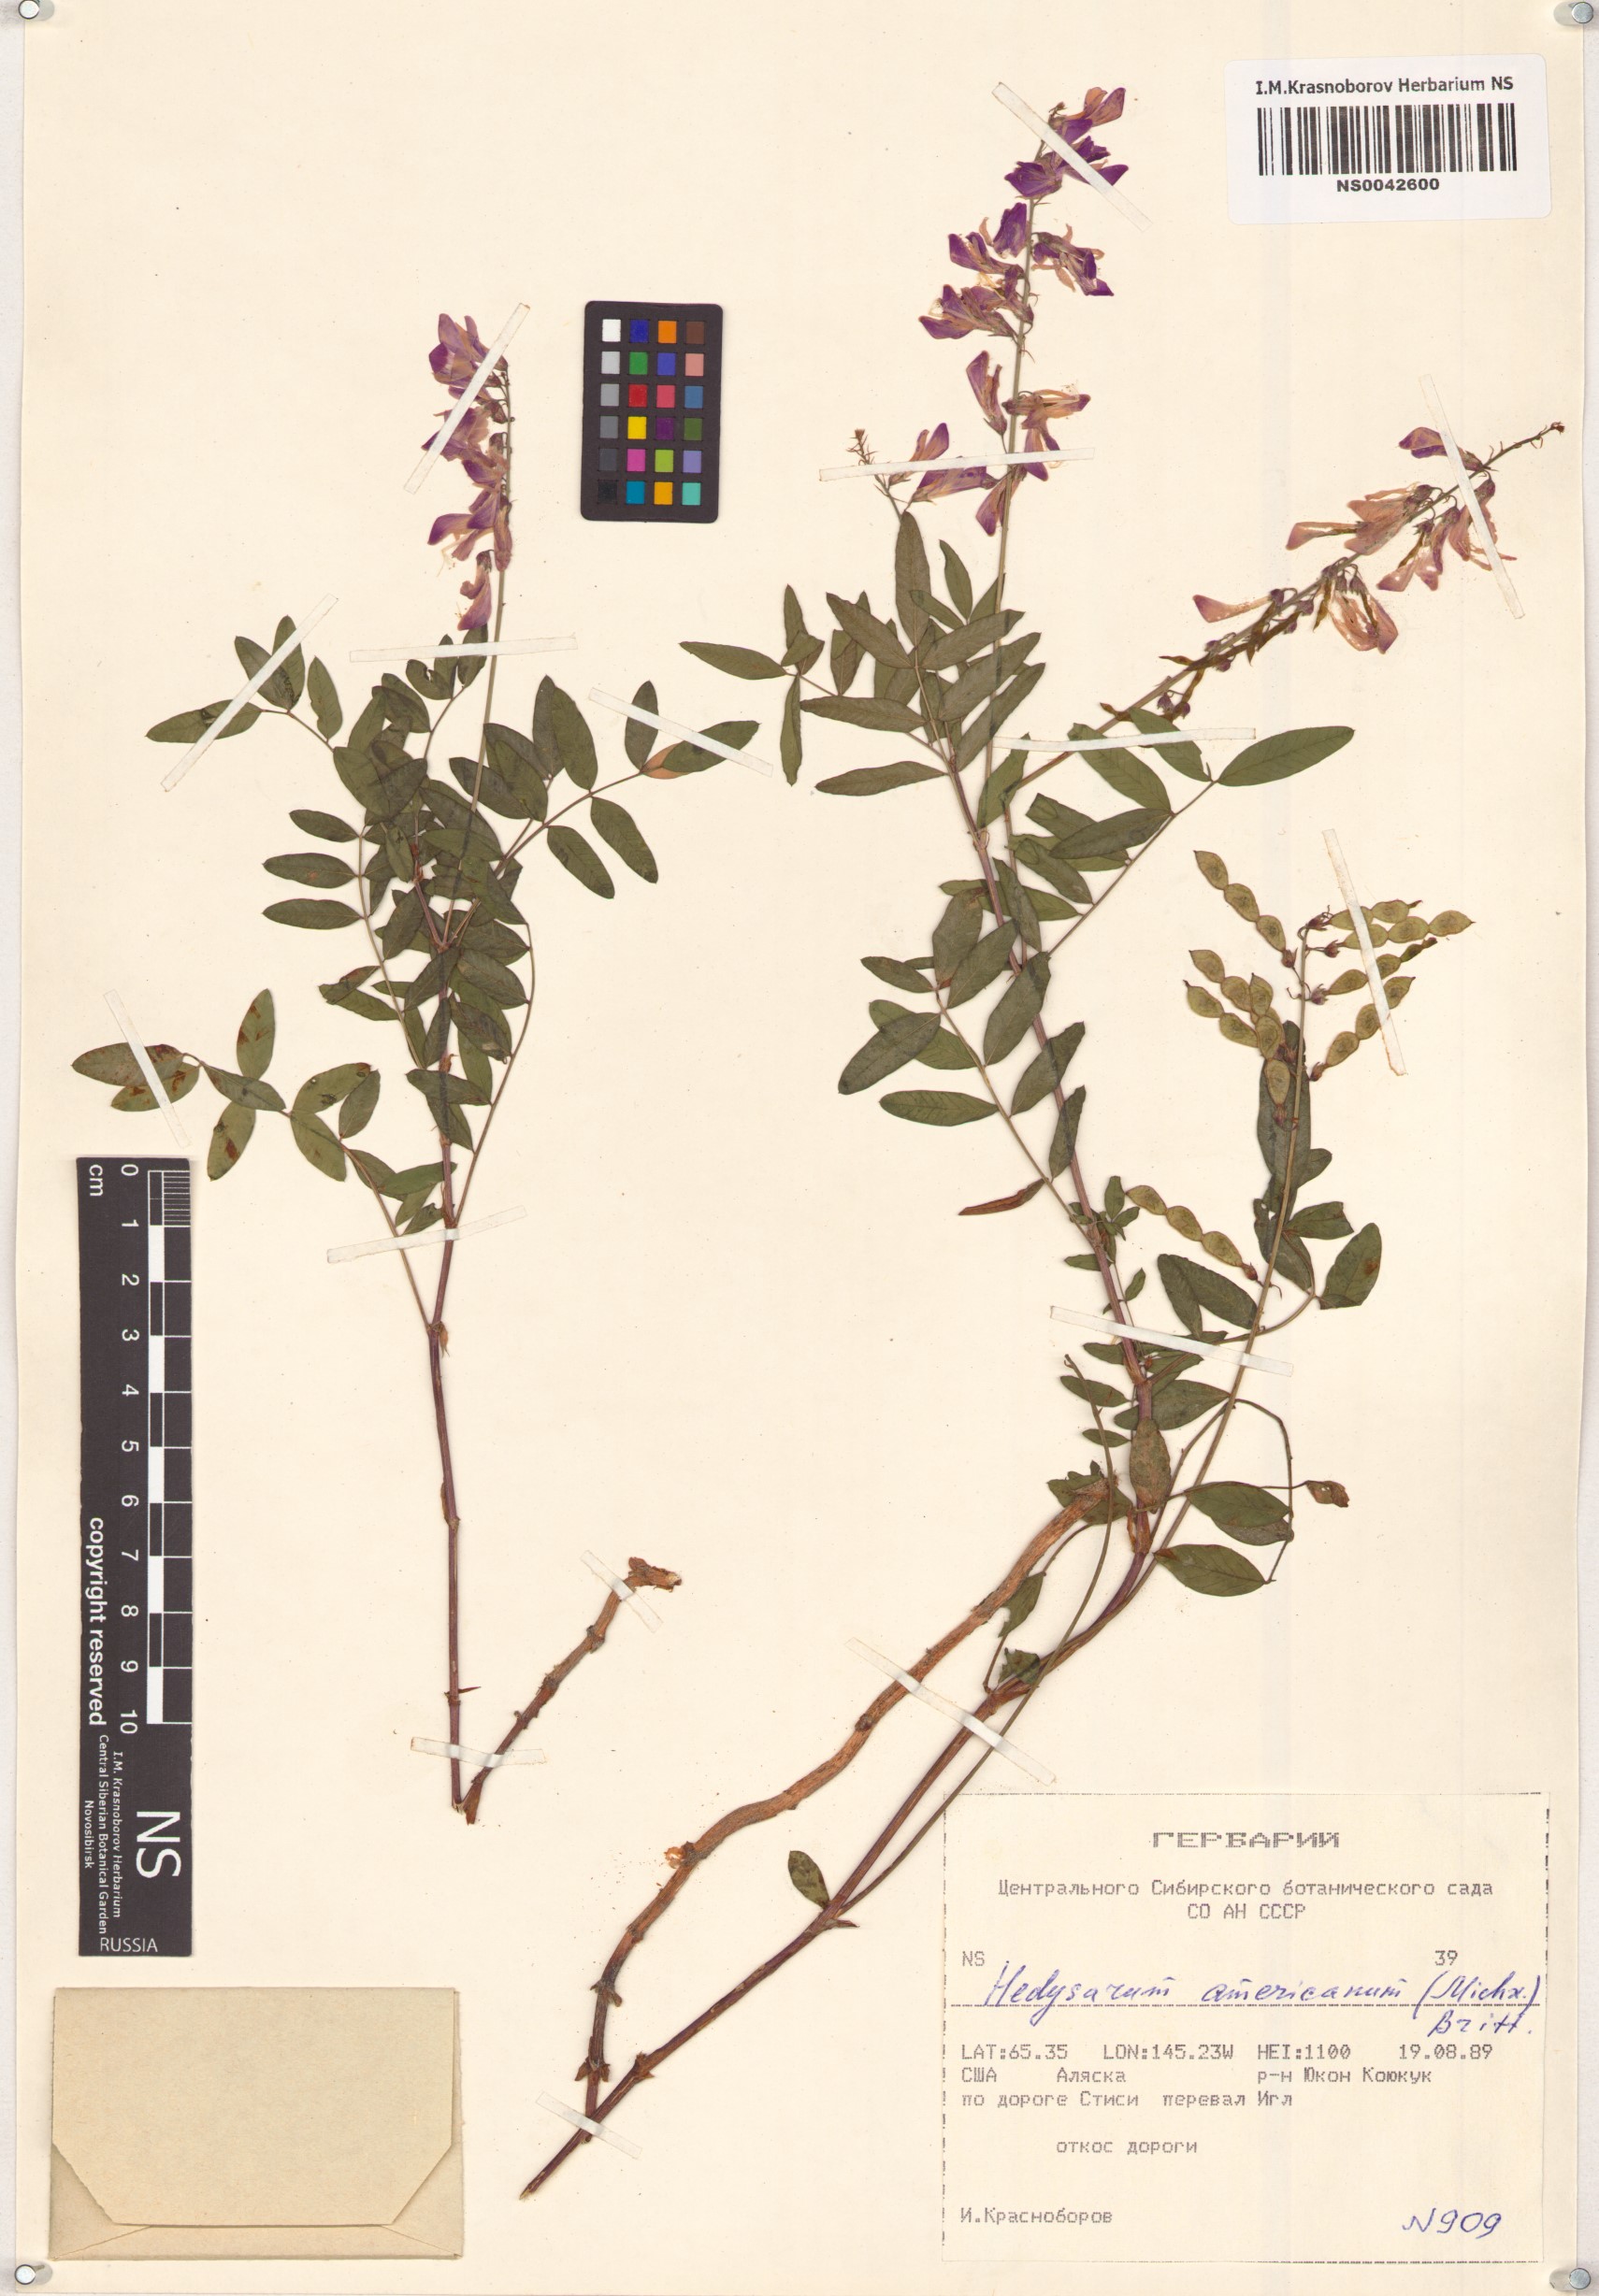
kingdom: Plantae
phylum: Tracheophyta
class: Magnoliopsida
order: Fabales
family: Fabaceae
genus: Hedysarum
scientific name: Hedysarum americanum
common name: Alpine hedysarum
